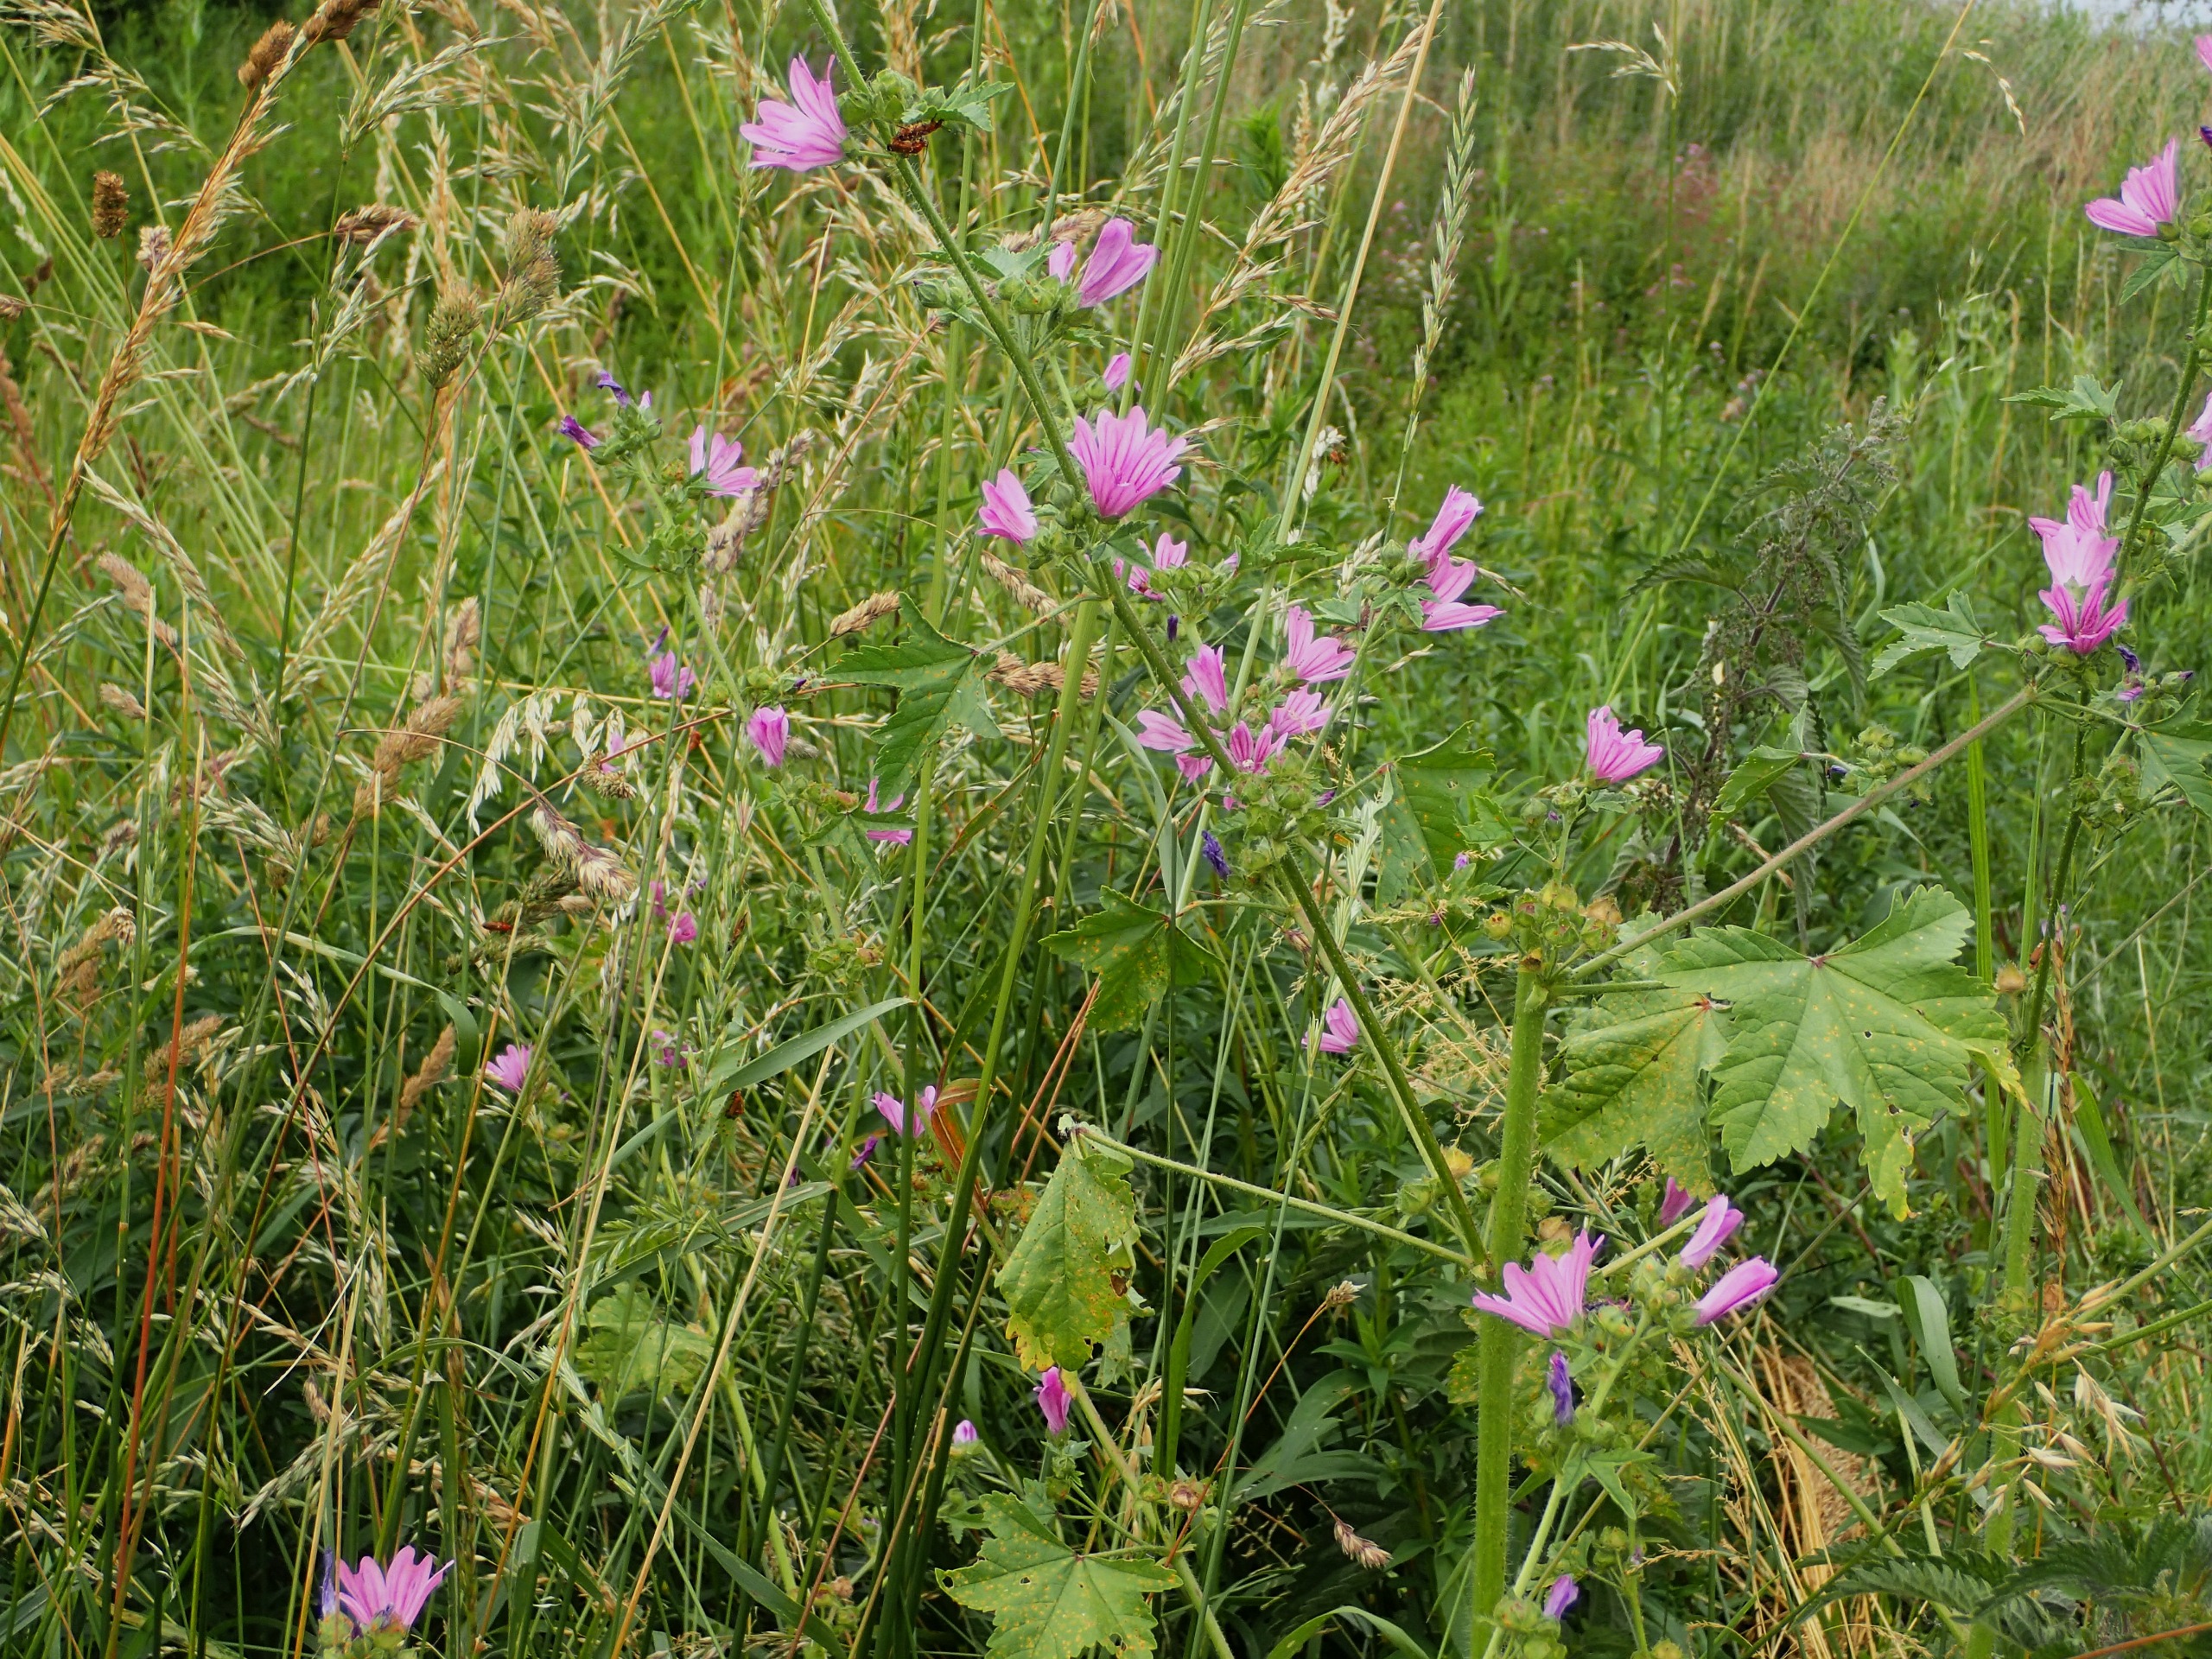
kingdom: Plantae
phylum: Tracheophyta
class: Magnoliopsida
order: Malvales
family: Malvaceae
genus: Malva
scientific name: Malva sylvestris
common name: Almindelig katost
